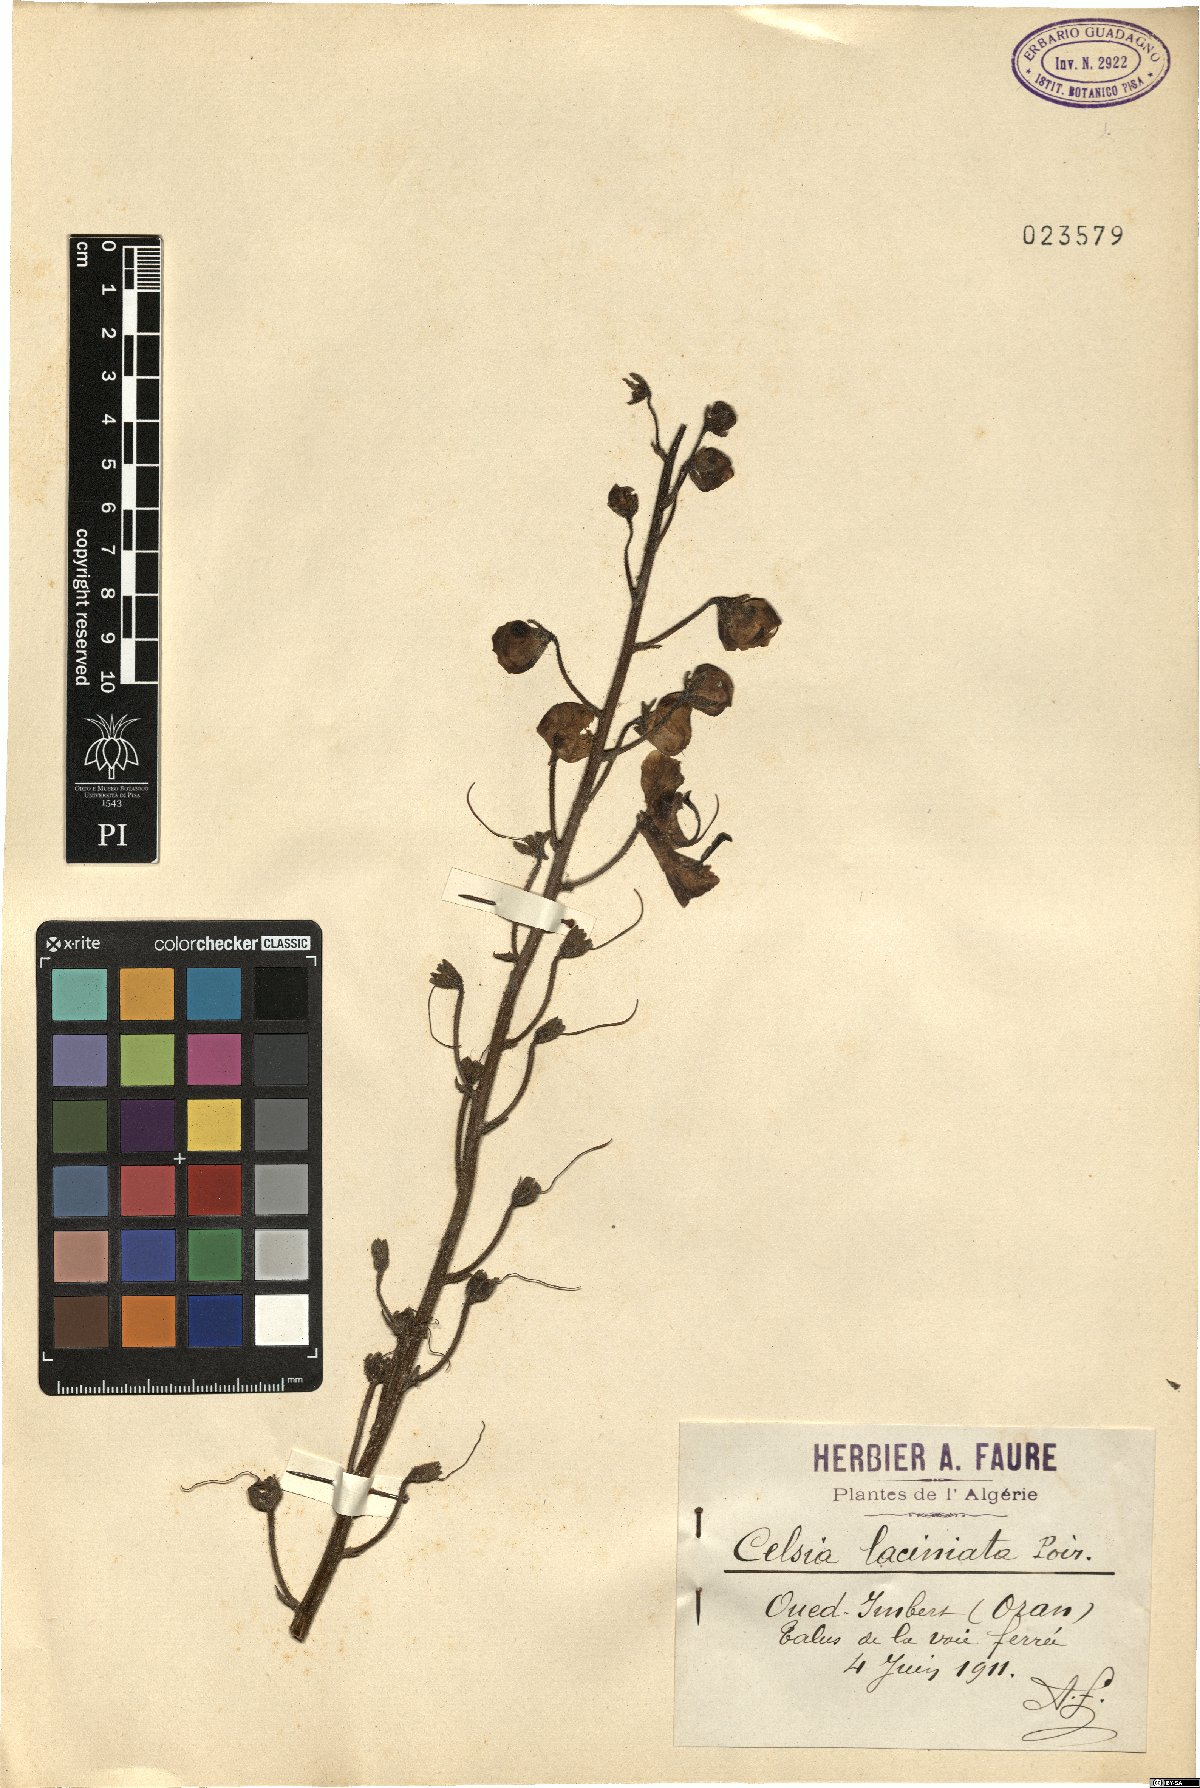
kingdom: Plantae
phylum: Tracheophyta
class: Magnoliopsida
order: Lamiales
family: Scrophulariaceae
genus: Verbascum
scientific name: Verbascum erosum
